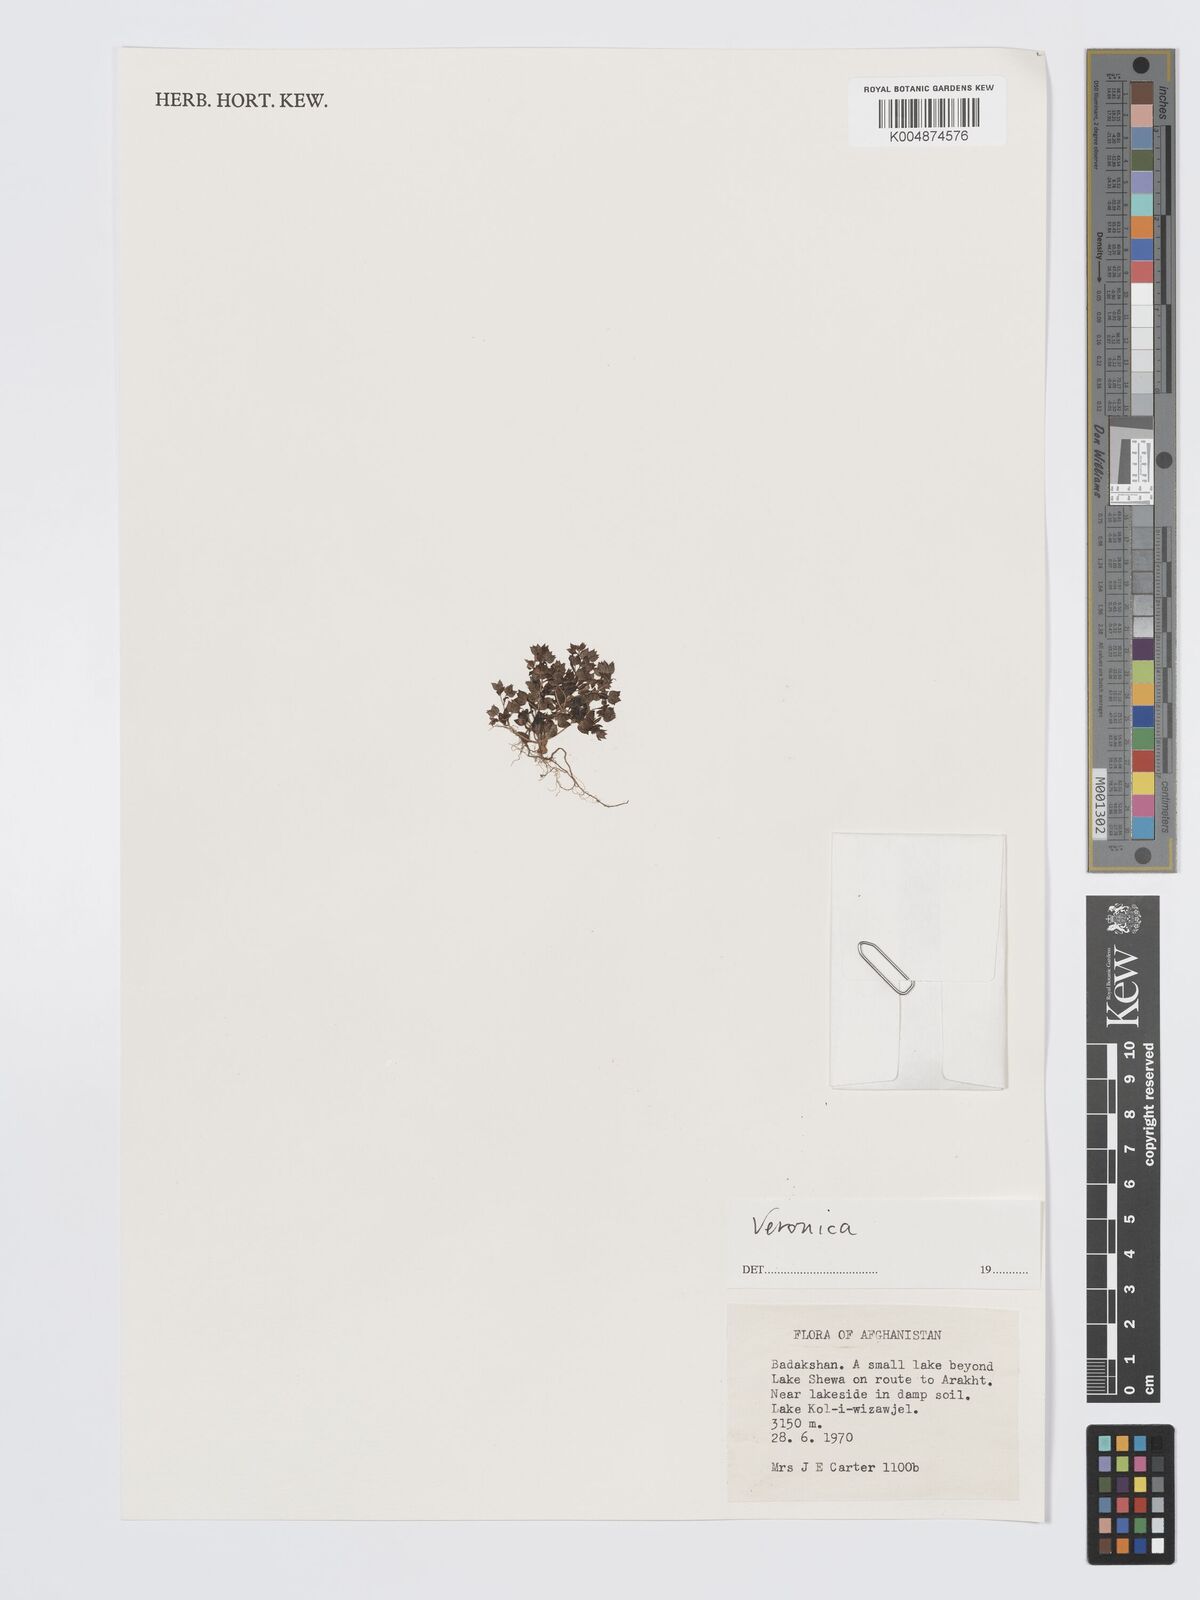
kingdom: Plantae
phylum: Tracheophyta
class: Magnoliopsida
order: Lamiales
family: Plantaginaceae
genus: Veronica
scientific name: Veronica
